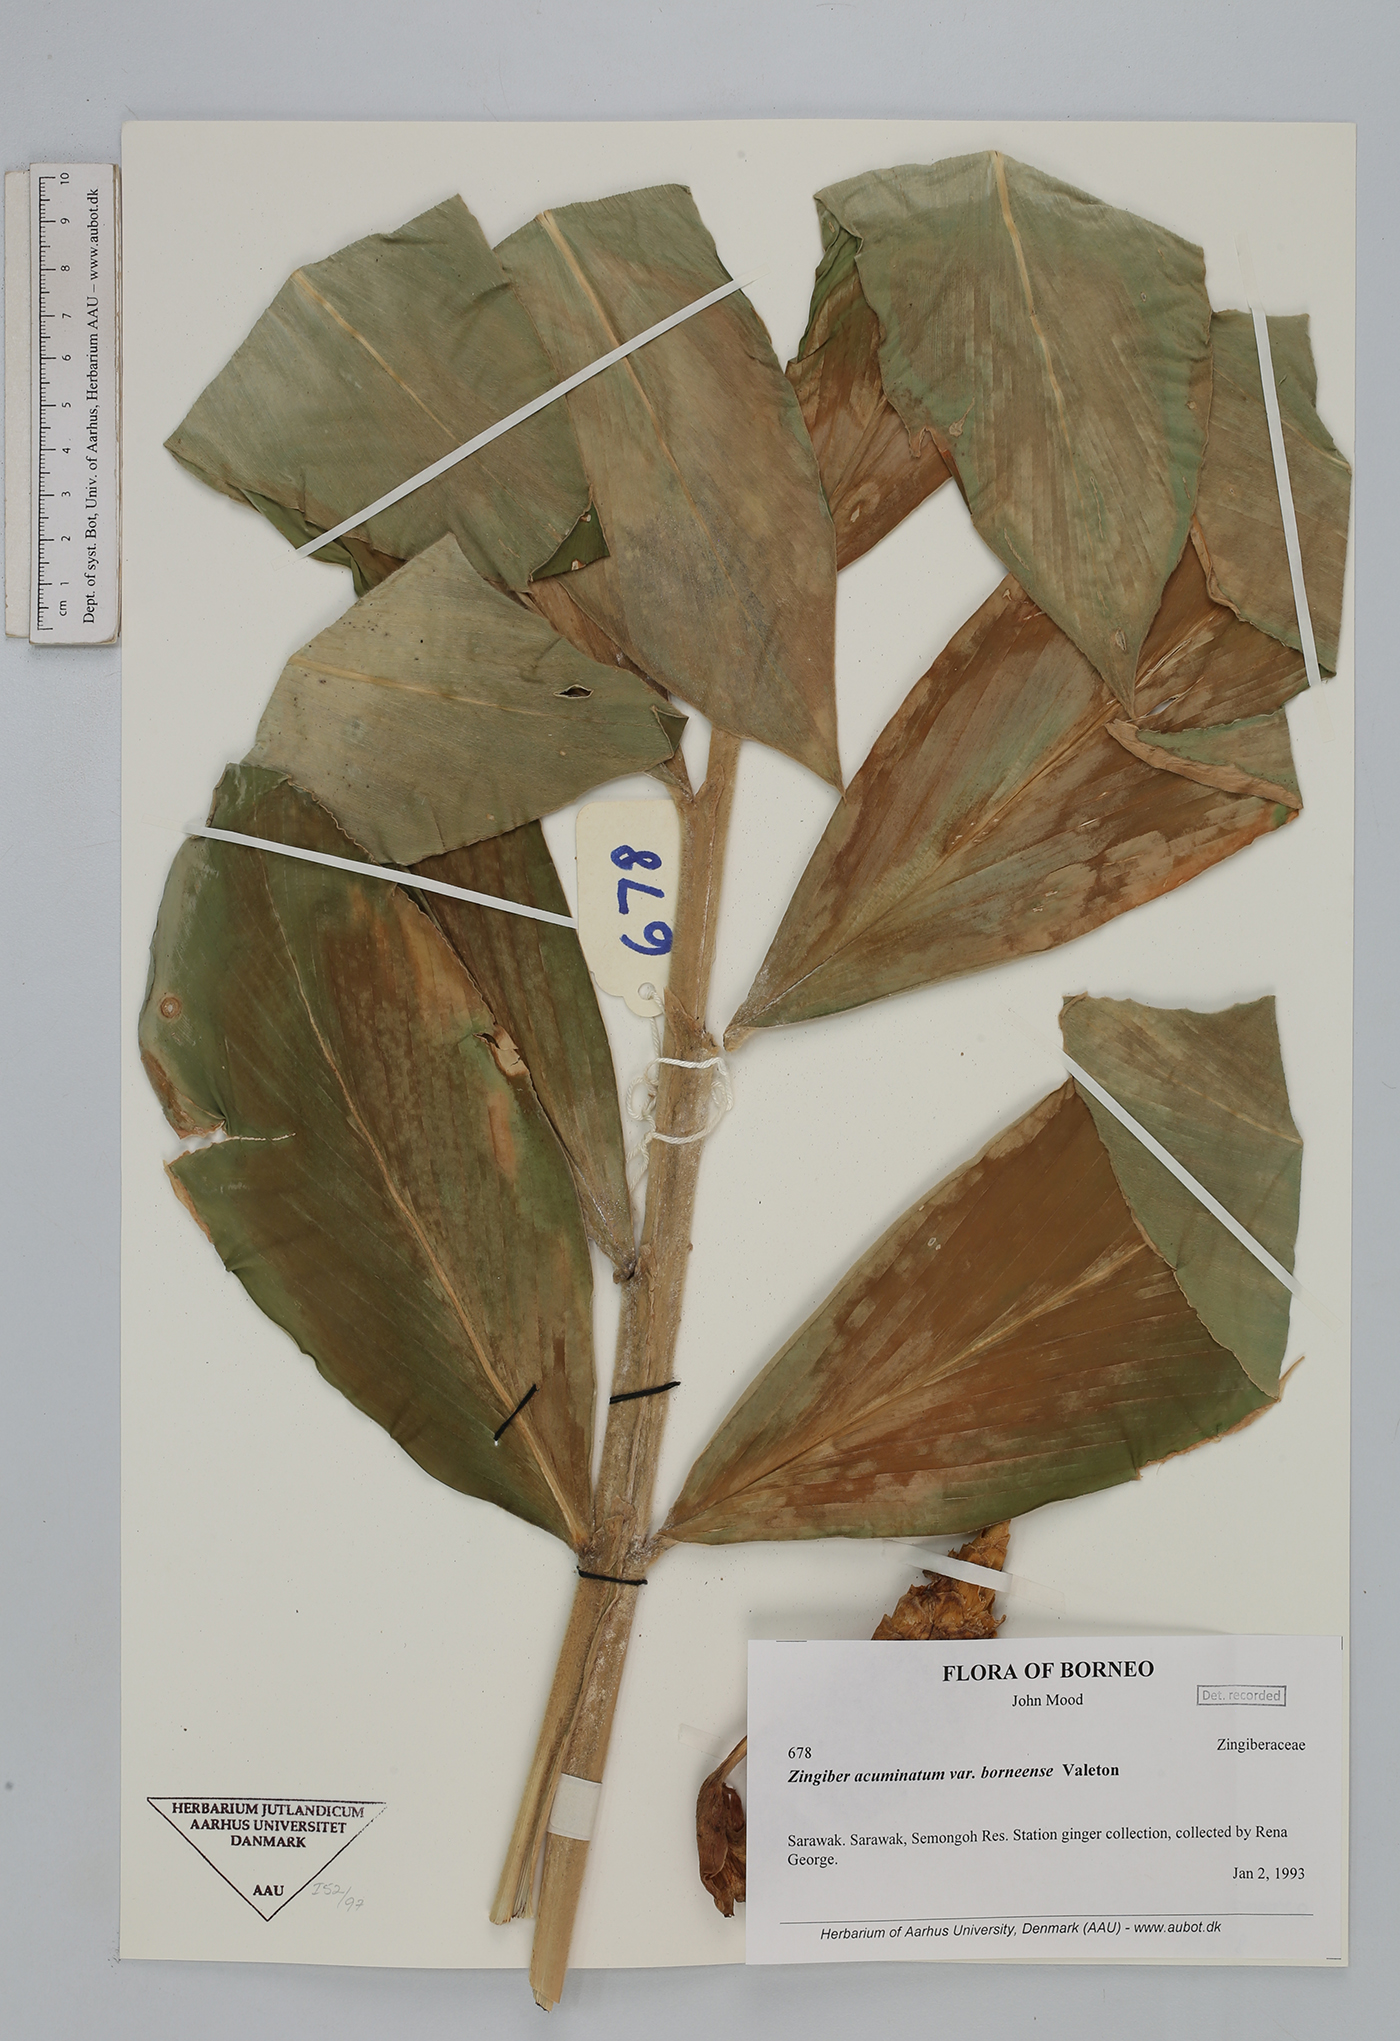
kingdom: Plantae
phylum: Tracheophyta
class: Liliopsida
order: Zingiberales
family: Zingiberaceae
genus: Zingiber
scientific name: Zingiber acuminatum
